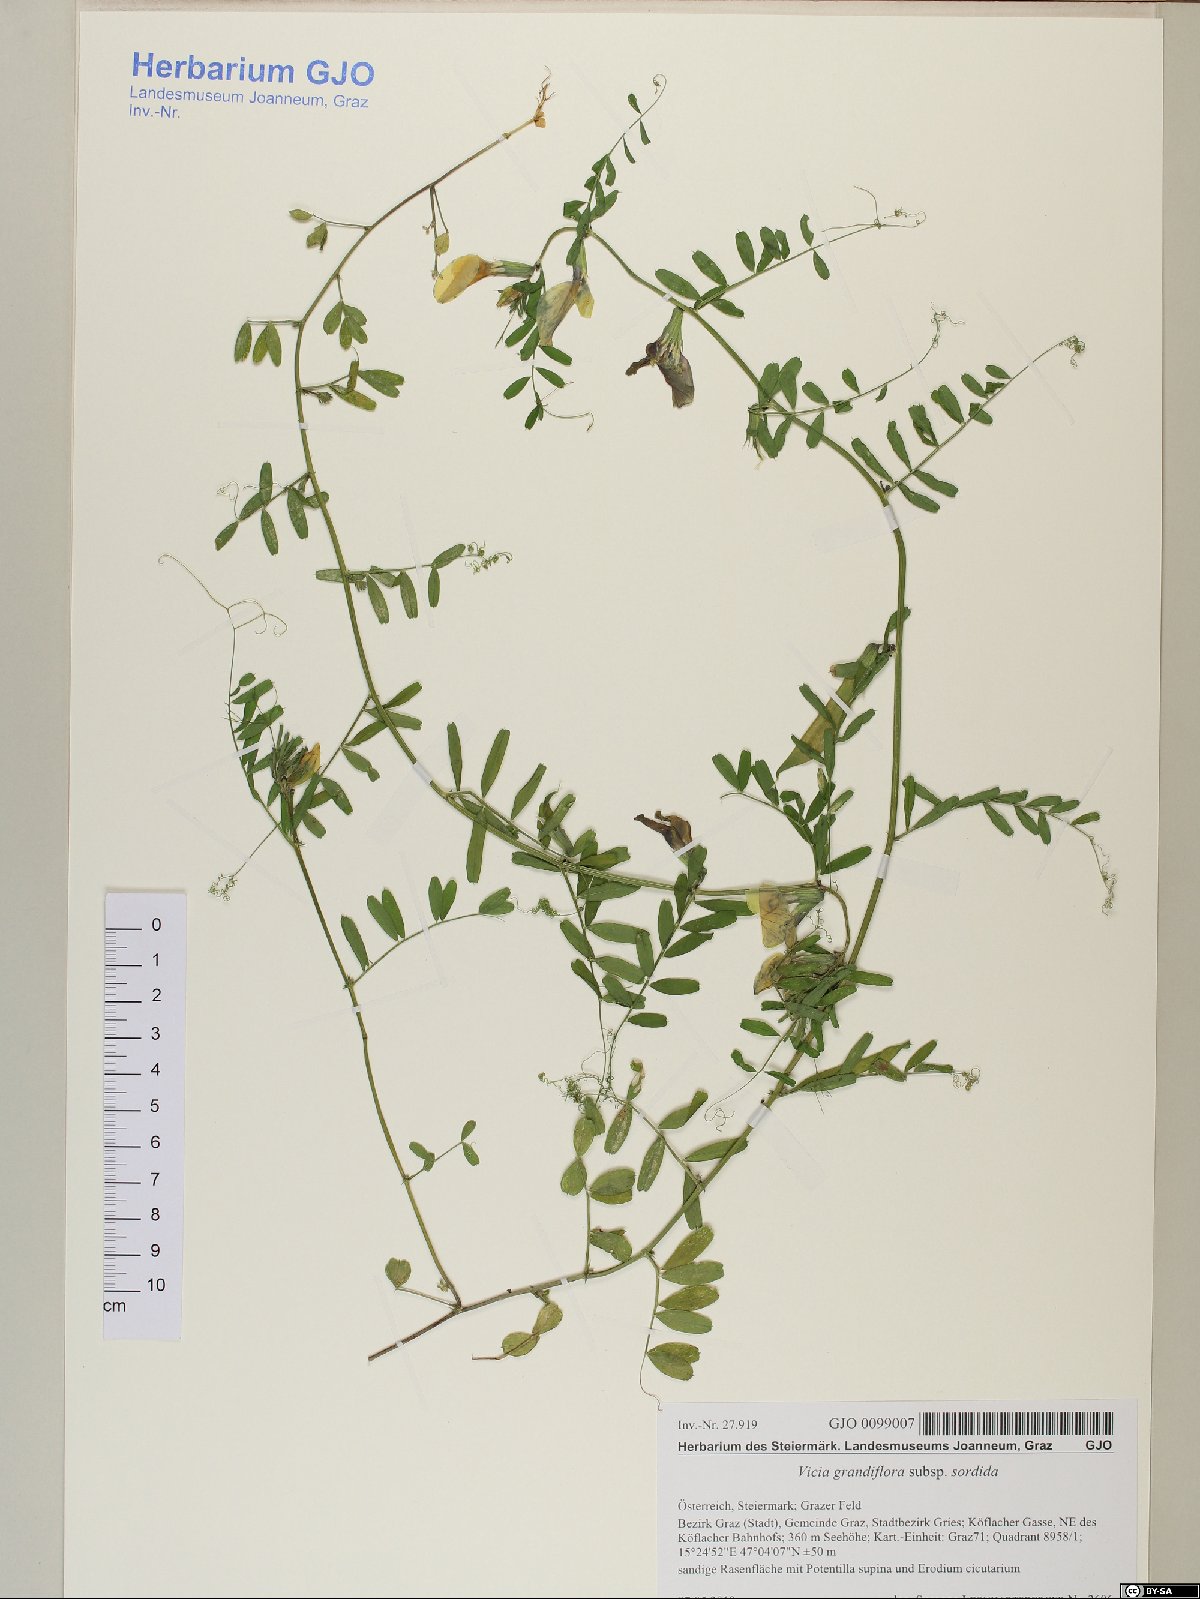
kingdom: Plantae
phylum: Tracheophyta
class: Magnoliopsida
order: Fabales
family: Fabaceae
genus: Vicia
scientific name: Vicia grandiflora
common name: Large yellow vetch
